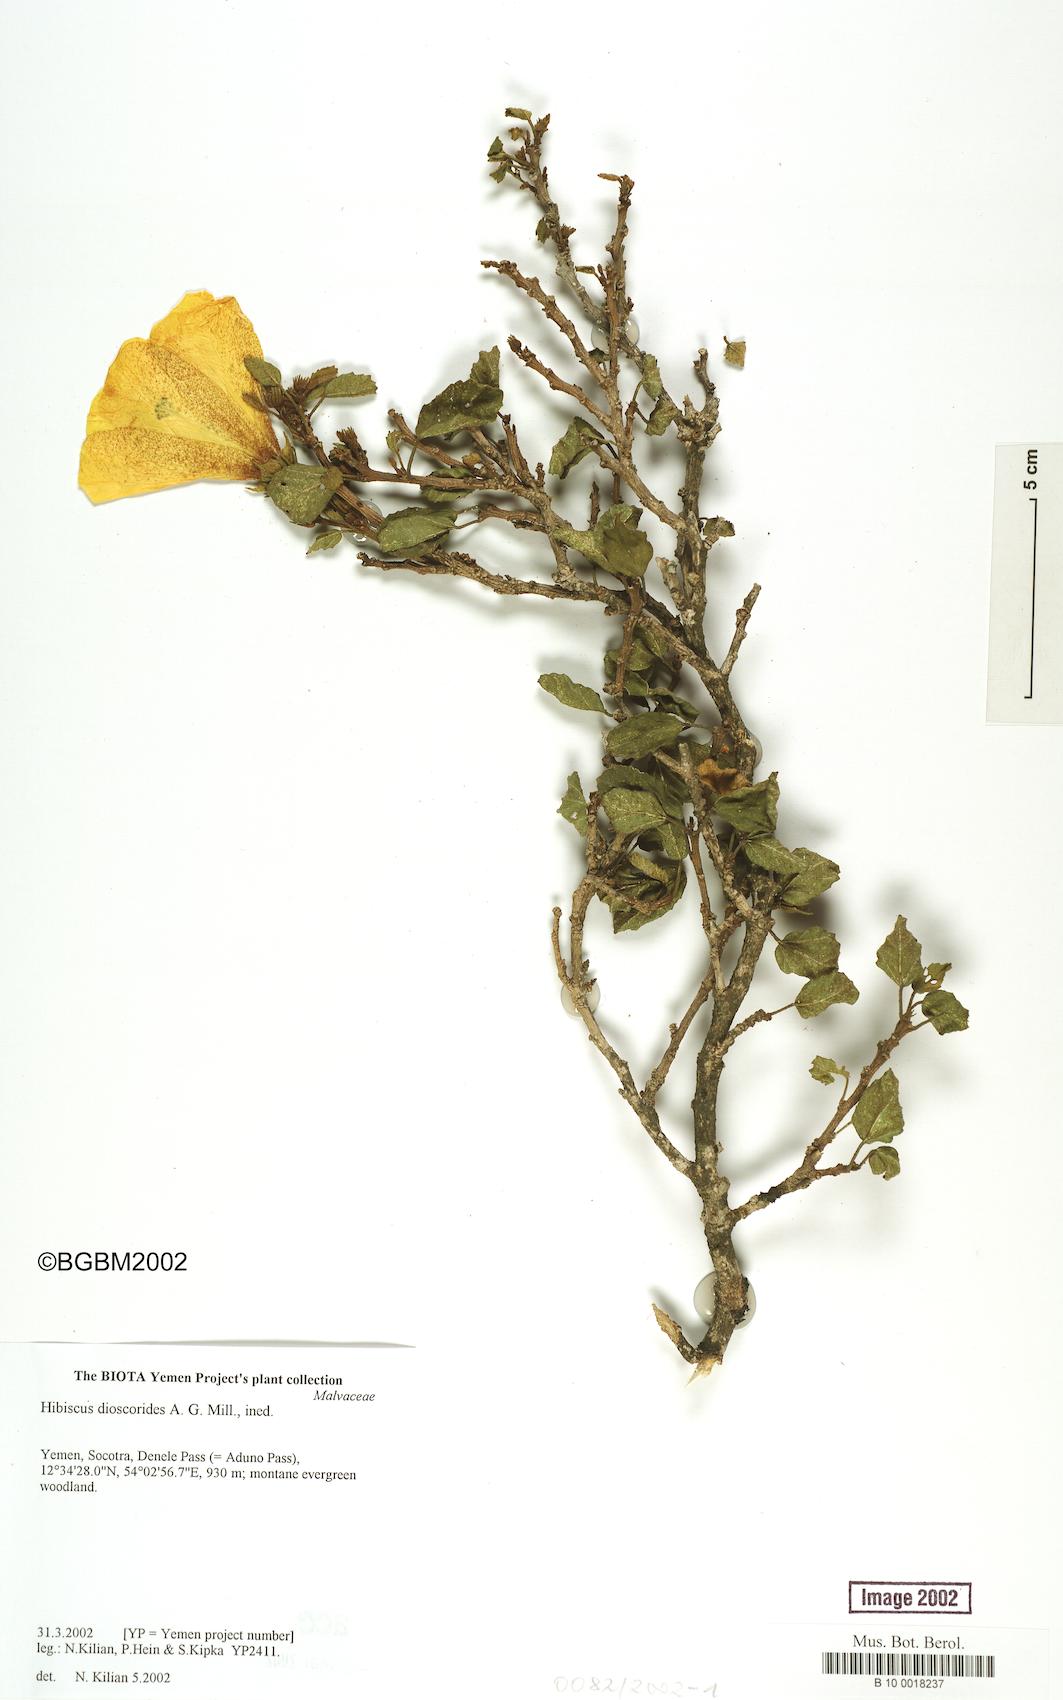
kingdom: Plantae
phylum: Tracheophyta
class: Magnoliopsida
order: Malvales
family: Malvaceae
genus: Hibiscus
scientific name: Hibiscus dioscorides
